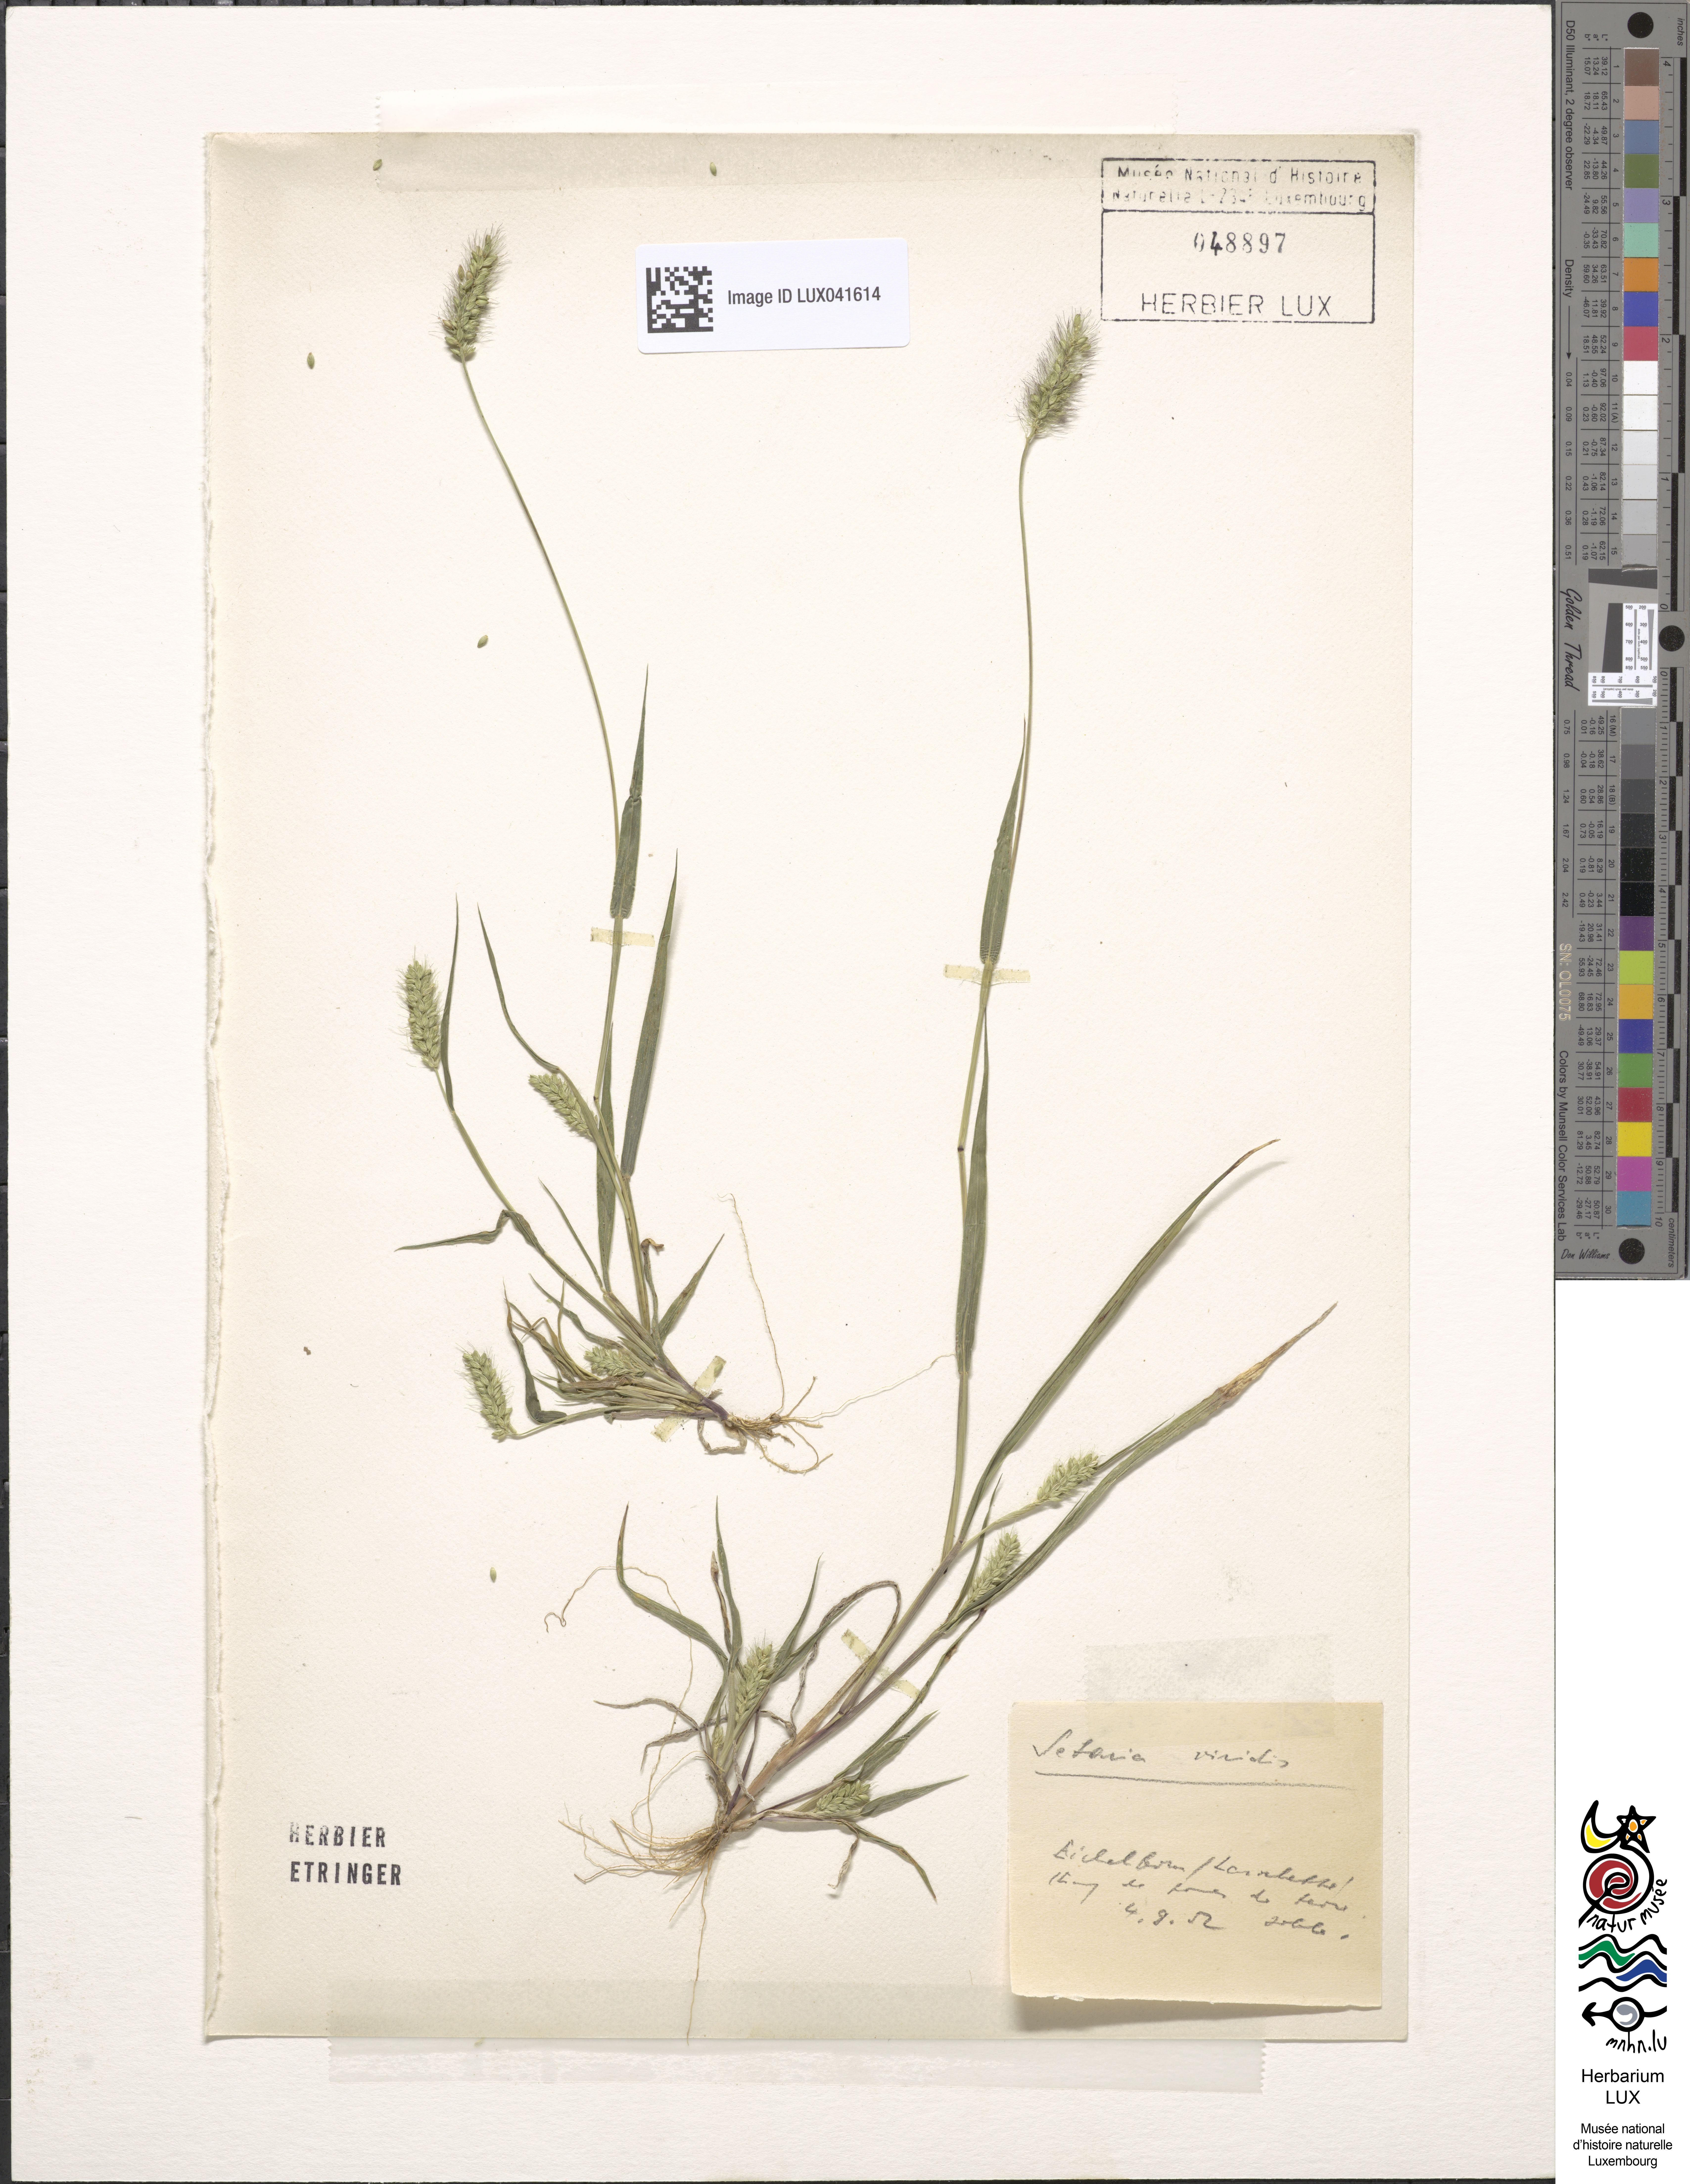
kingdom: Plantae
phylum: Tracheophyta
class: Liliopsida
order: Poales
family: Poaceae
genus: Setaria
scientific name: Setaria viridis
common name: Green bristlegrass
